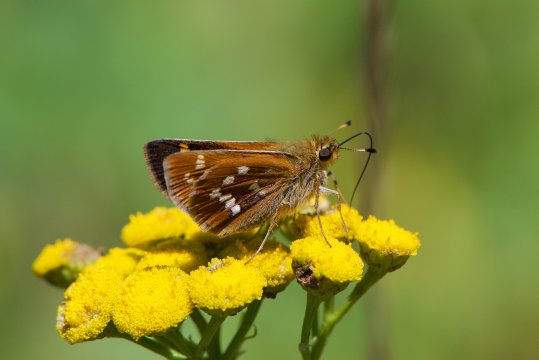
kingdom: Animalia
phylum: Arthropoda
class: Insecta
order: Lepidoptera
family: Hesperiidae
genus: Hesperia
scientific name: Hesperia leonardus
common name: Leonard's Skipper
